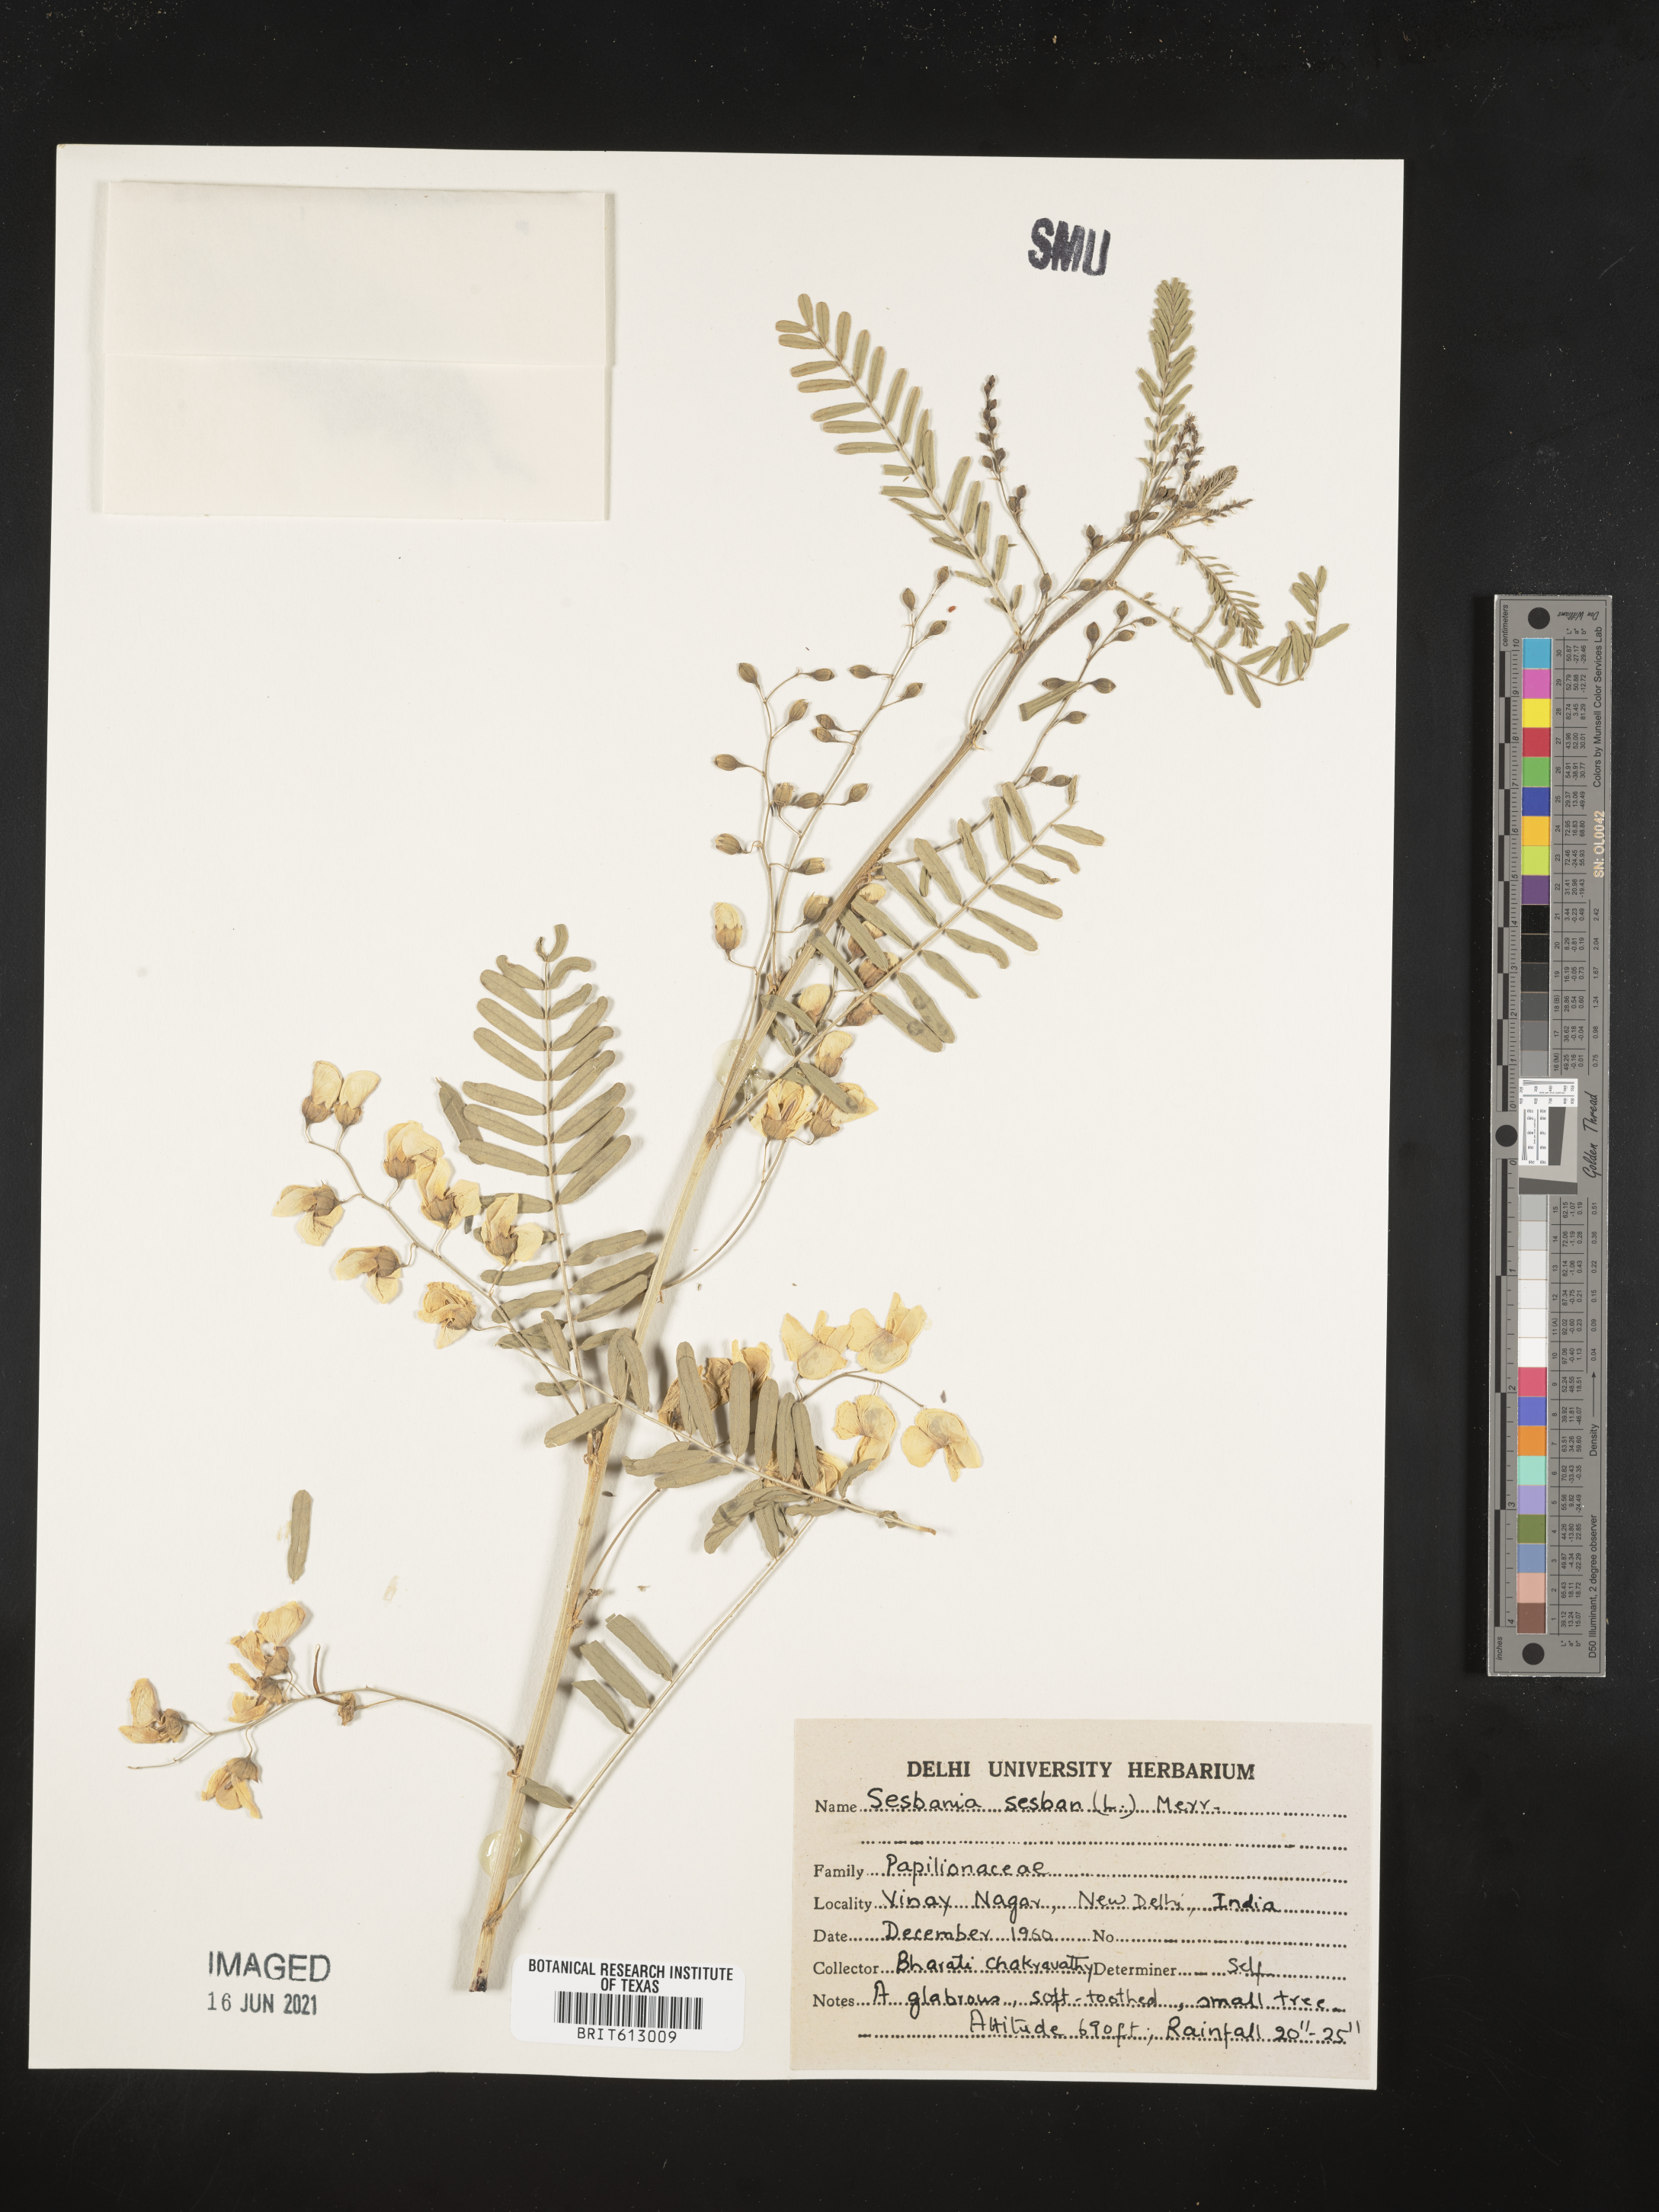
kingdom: Plantae
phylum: Tracheophyta
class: Magnoliopsida
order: Fabales
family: Fabaceae
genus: Sesbania
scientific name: Sesbania sesban
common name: Egyptian sesban
